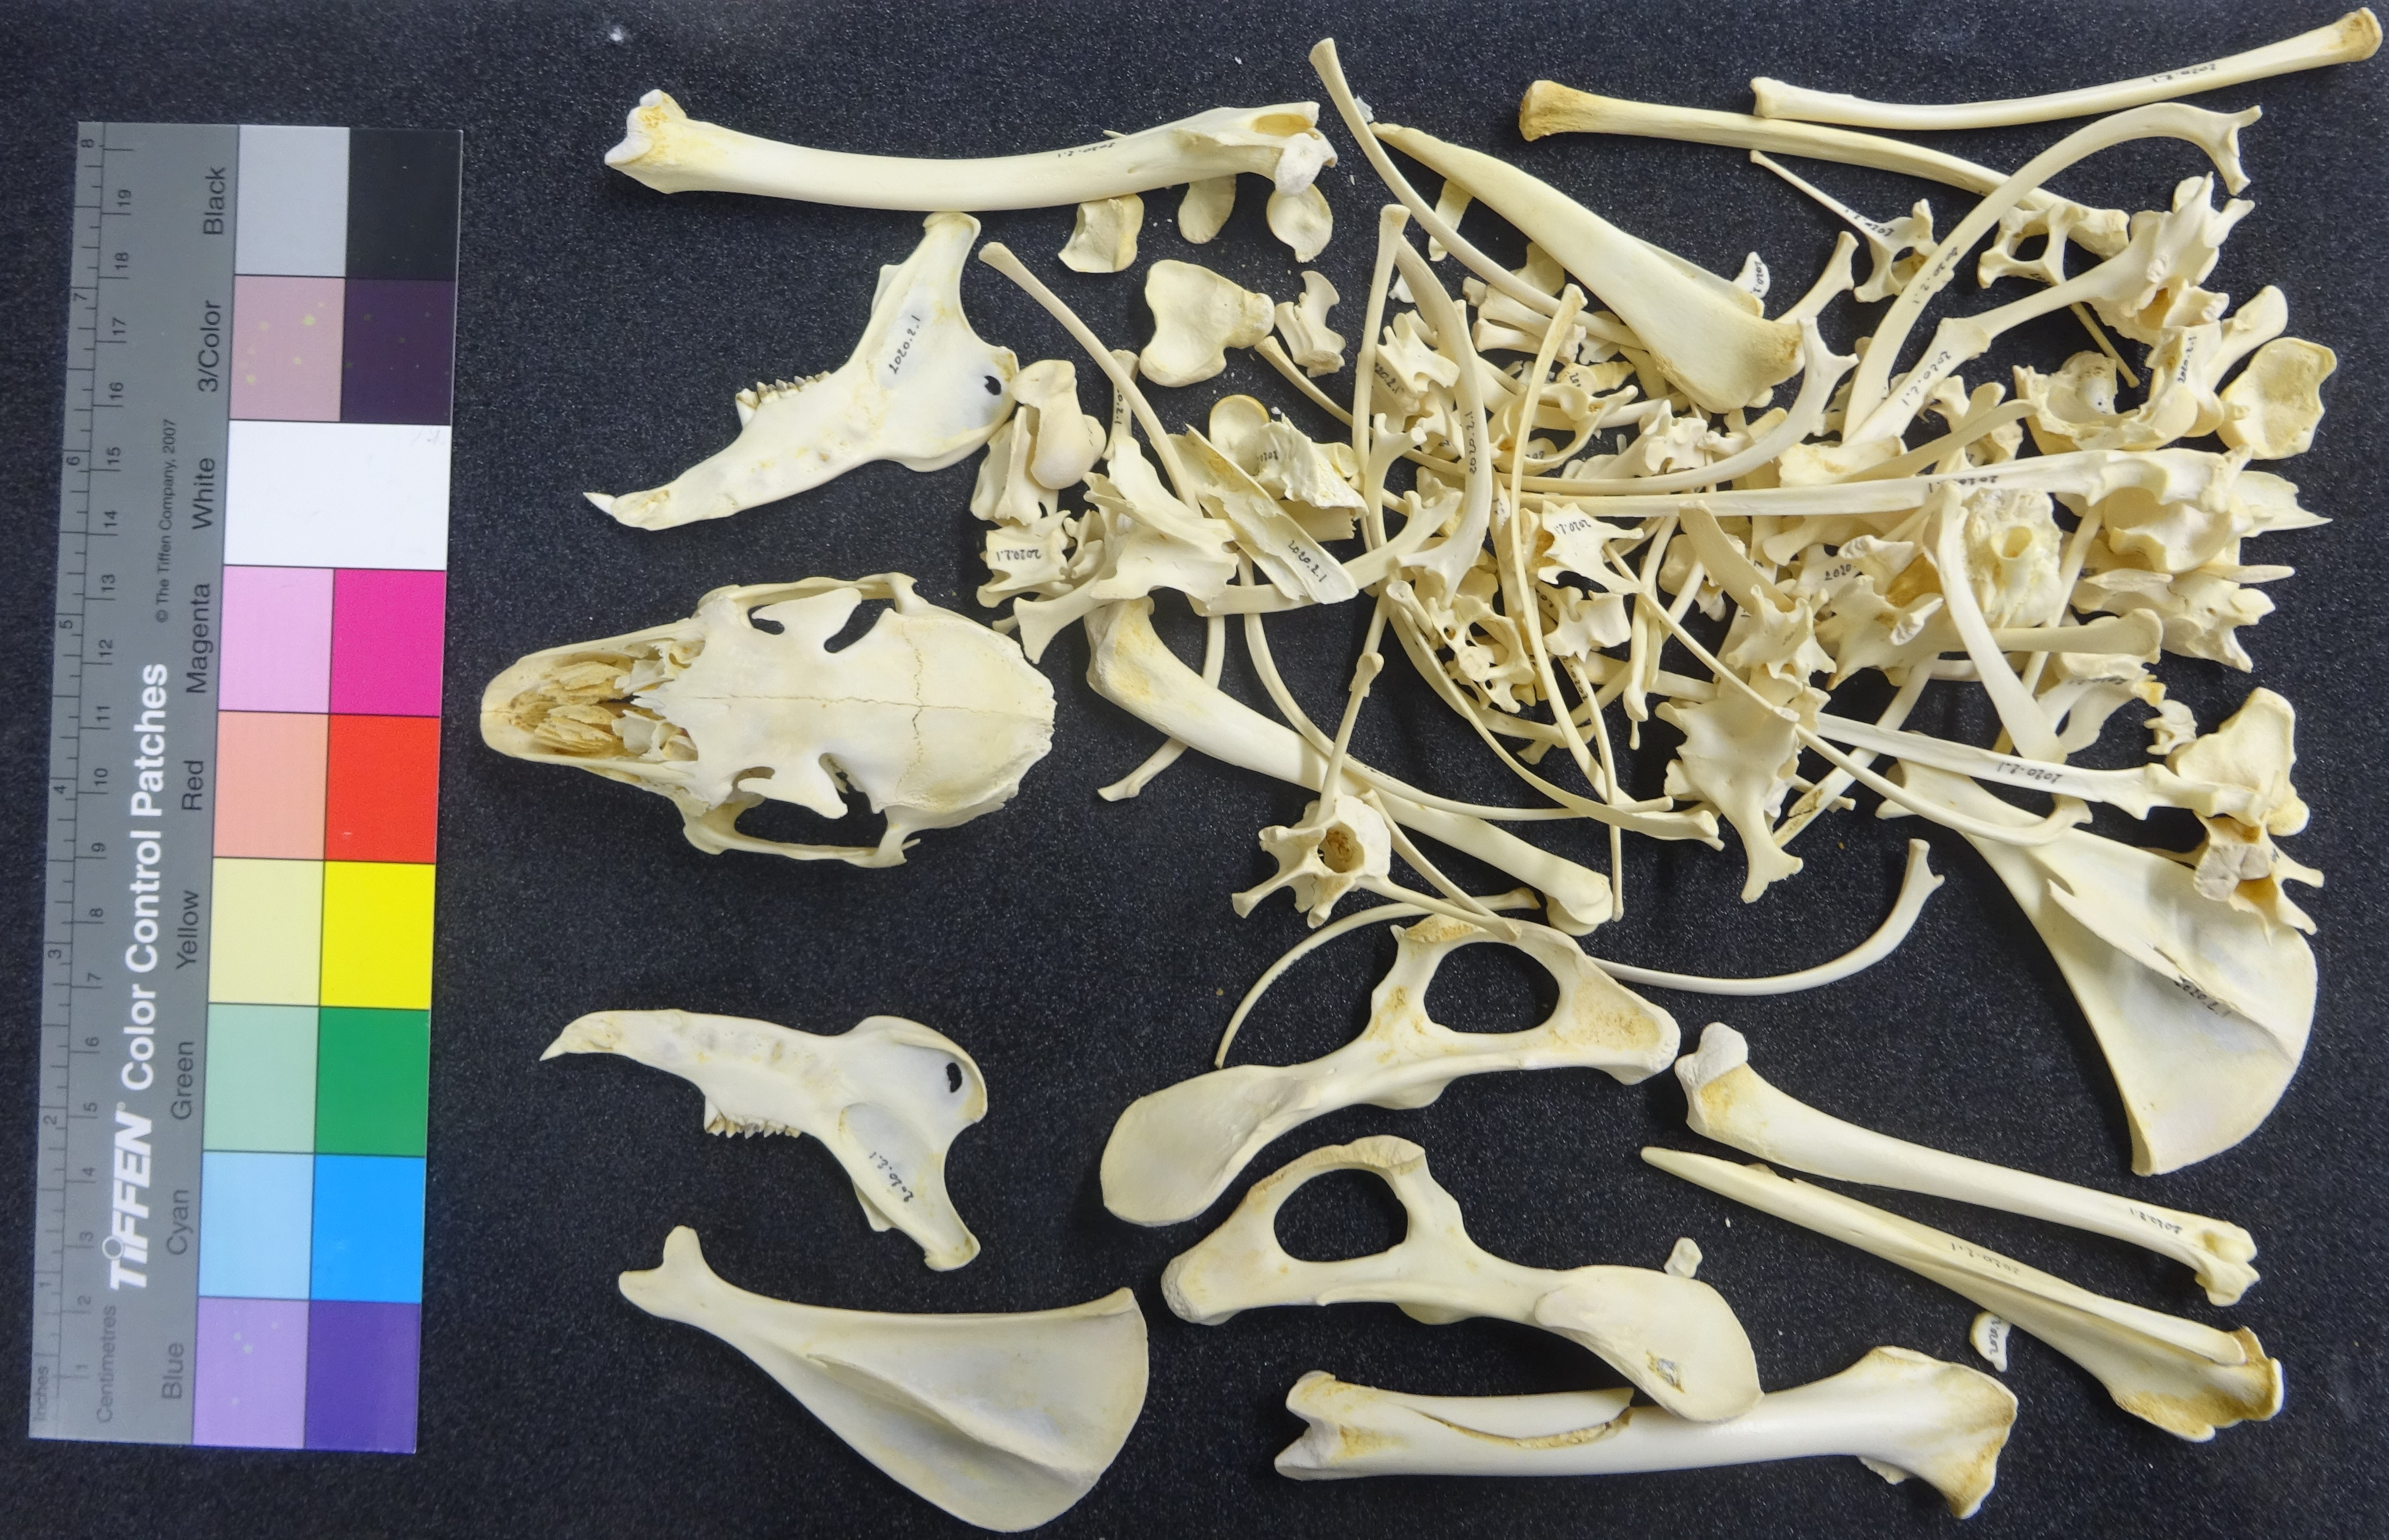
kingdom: Animalia
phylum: Chordata
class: Mammalia
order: Lagomorpha
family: Leporidae
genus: Lepus
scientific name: Lepus capensis
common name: Cape hare
